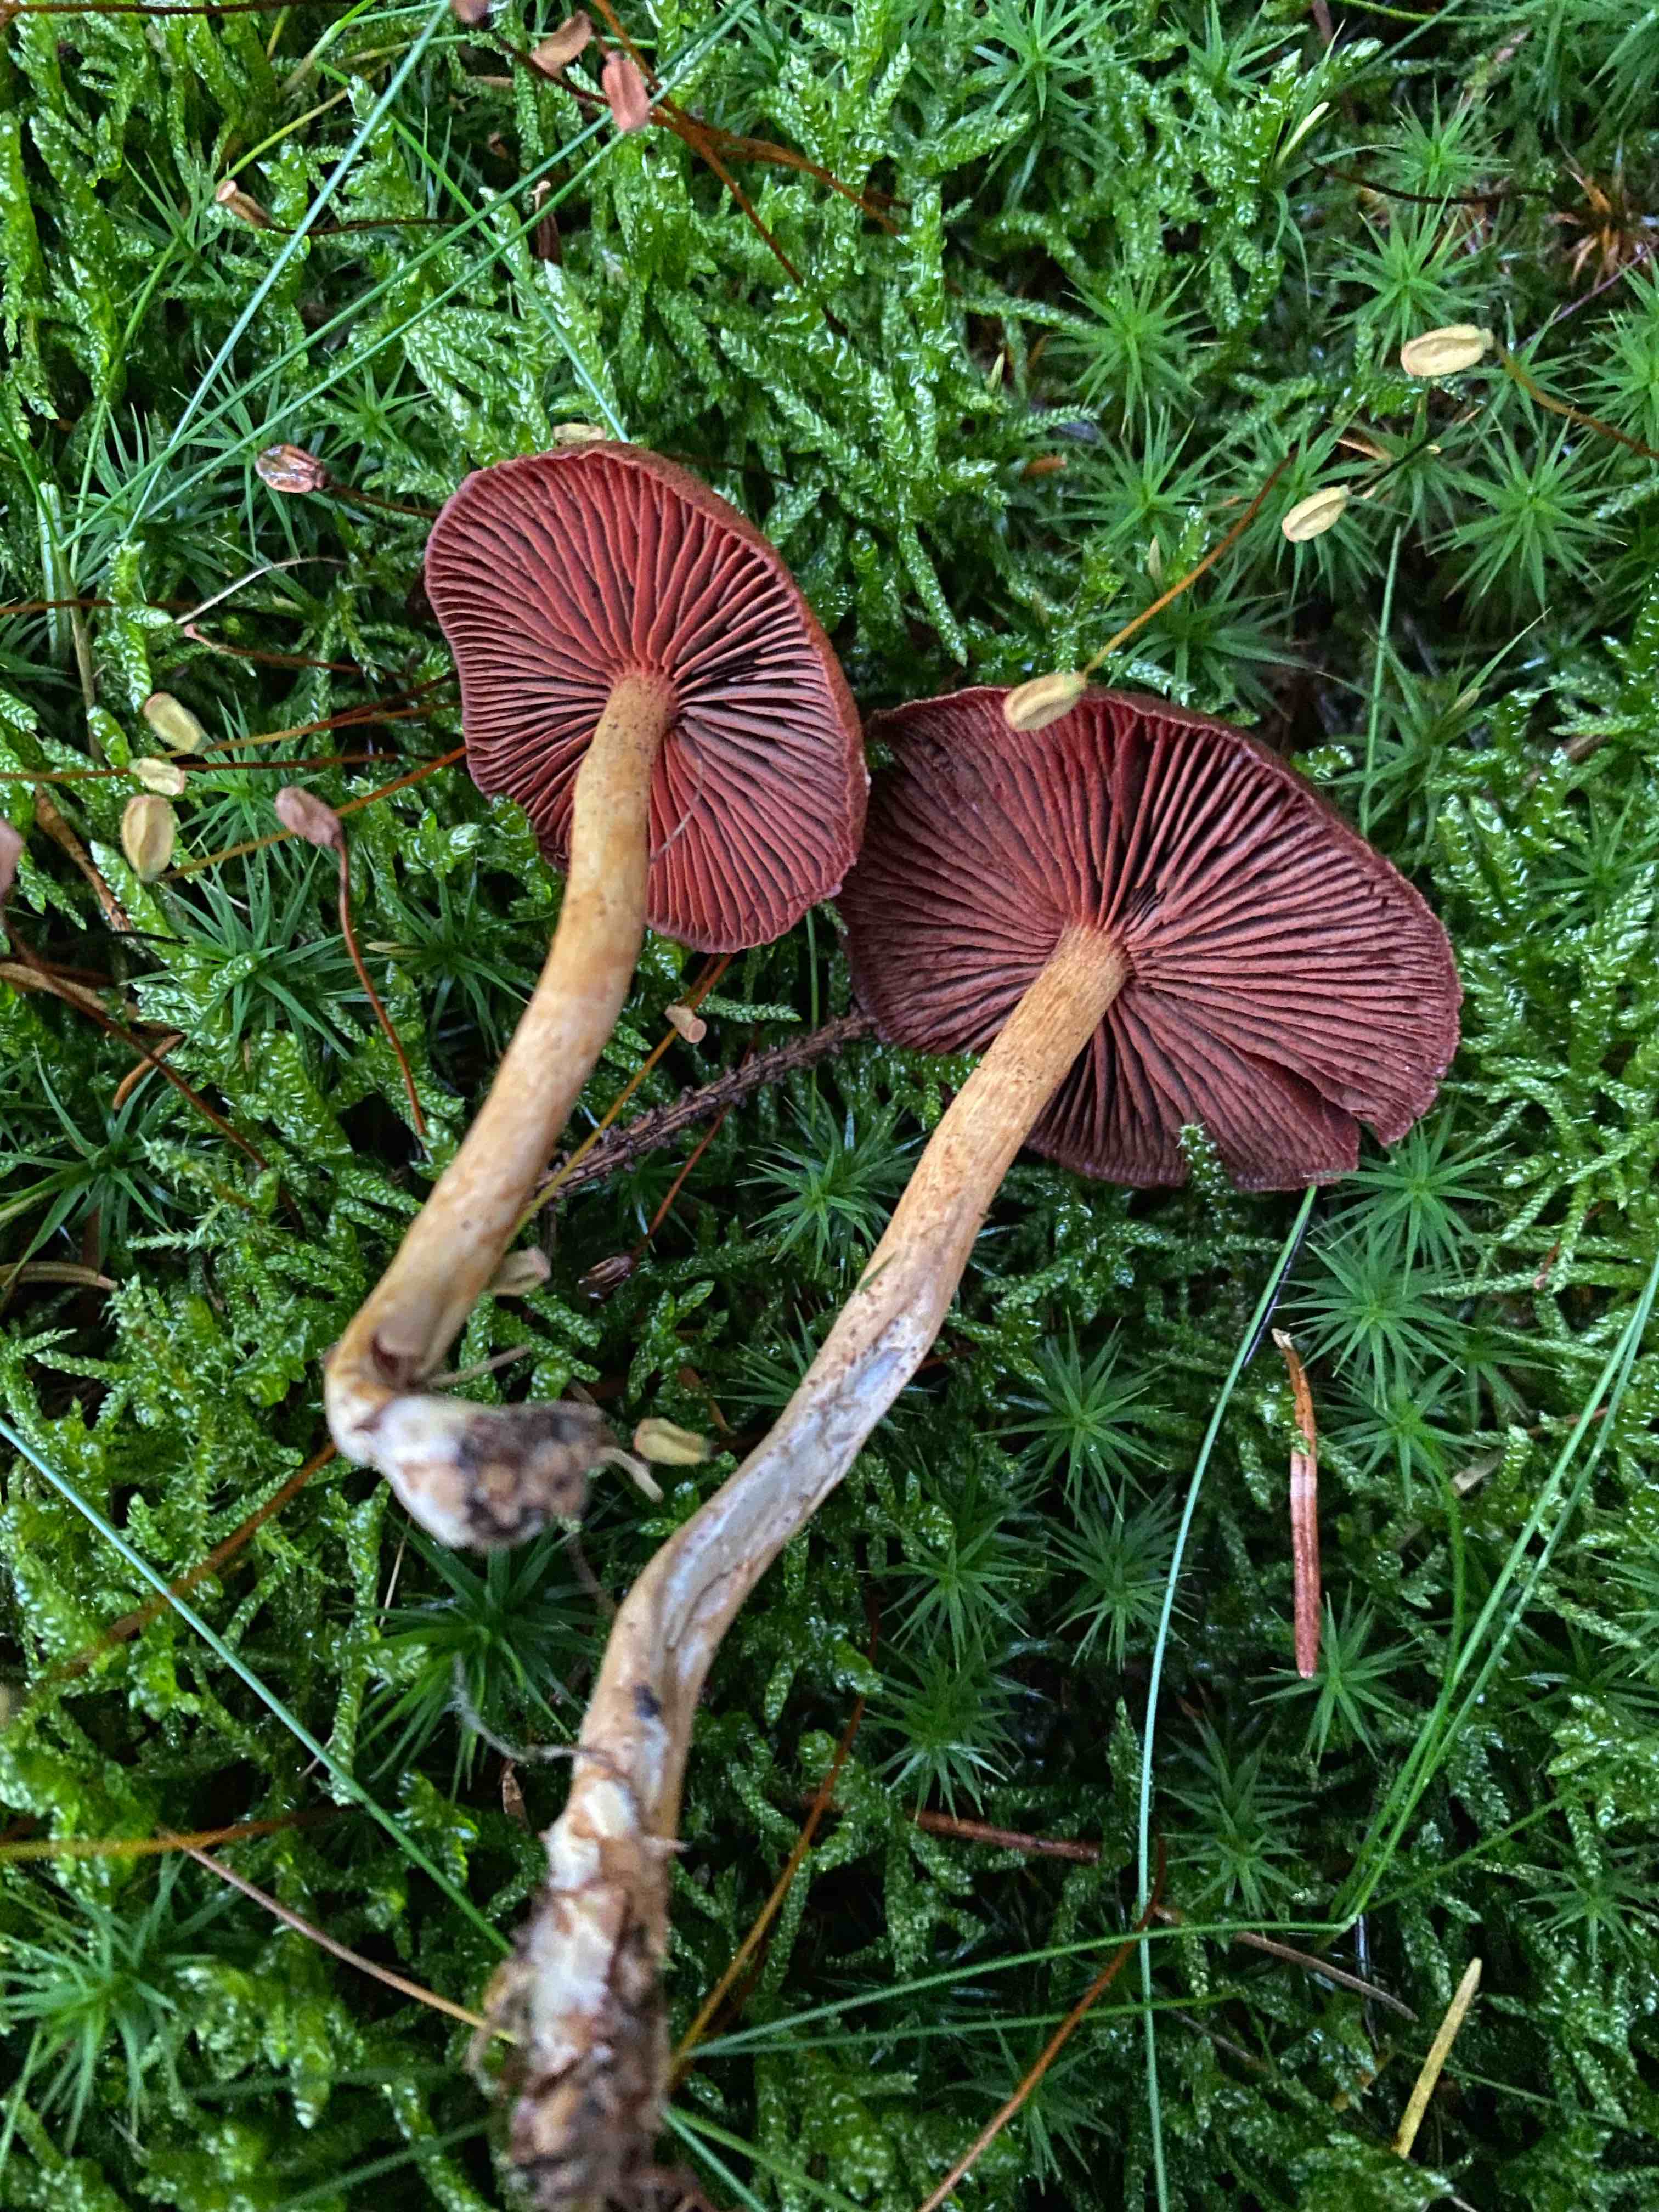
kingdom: Fungi
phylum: Basidiomycota
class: Agaricomycetes
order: Agaricales
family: Cortinariaceae
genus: Cortinarius
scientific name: Cortinarius
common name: cinnoberbladet slørhat
